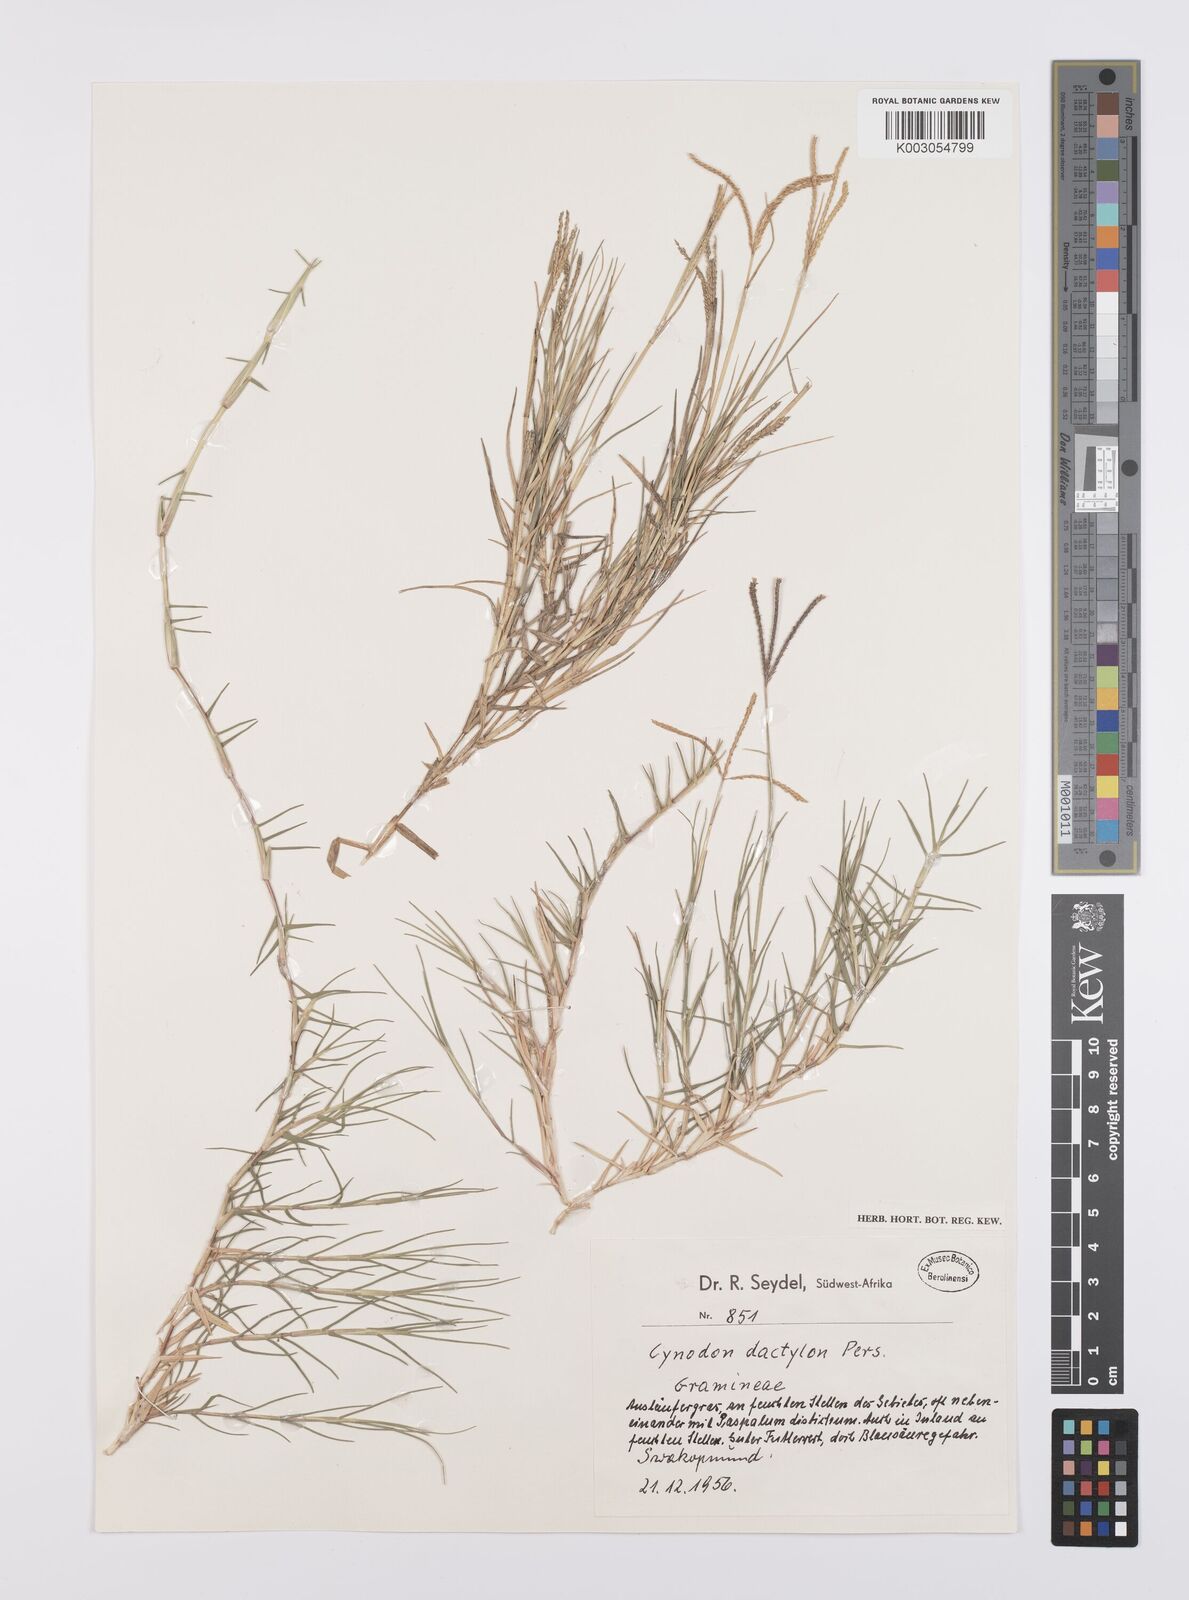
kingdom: Plantae
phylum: Tracheophyta
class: Liliopsida
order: Poales
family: Poaceae
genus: Cynodon
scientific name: Cynodon dactylon
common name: Bermuda grass
